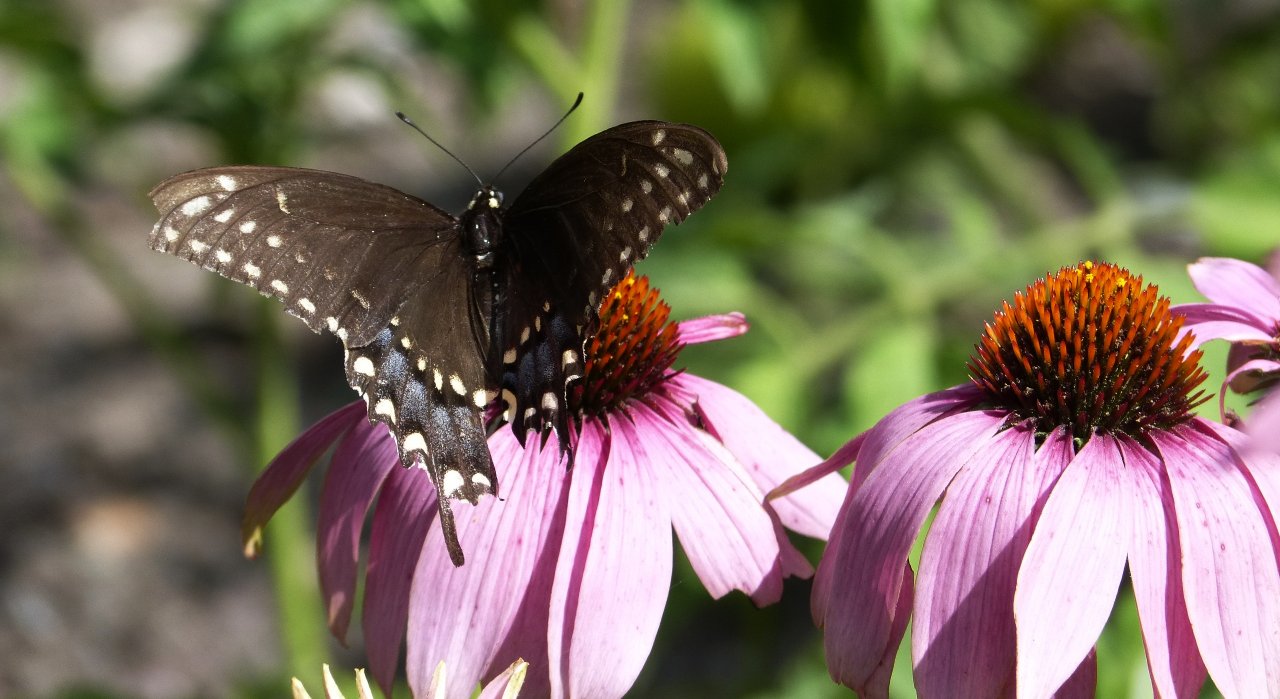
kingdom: Animalia
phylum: Arthropoda
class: Insecta
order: Lepidoptera
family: Papilionidae
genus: Papilio
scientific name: Papilio polyxenes
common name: Black Swallowtail
